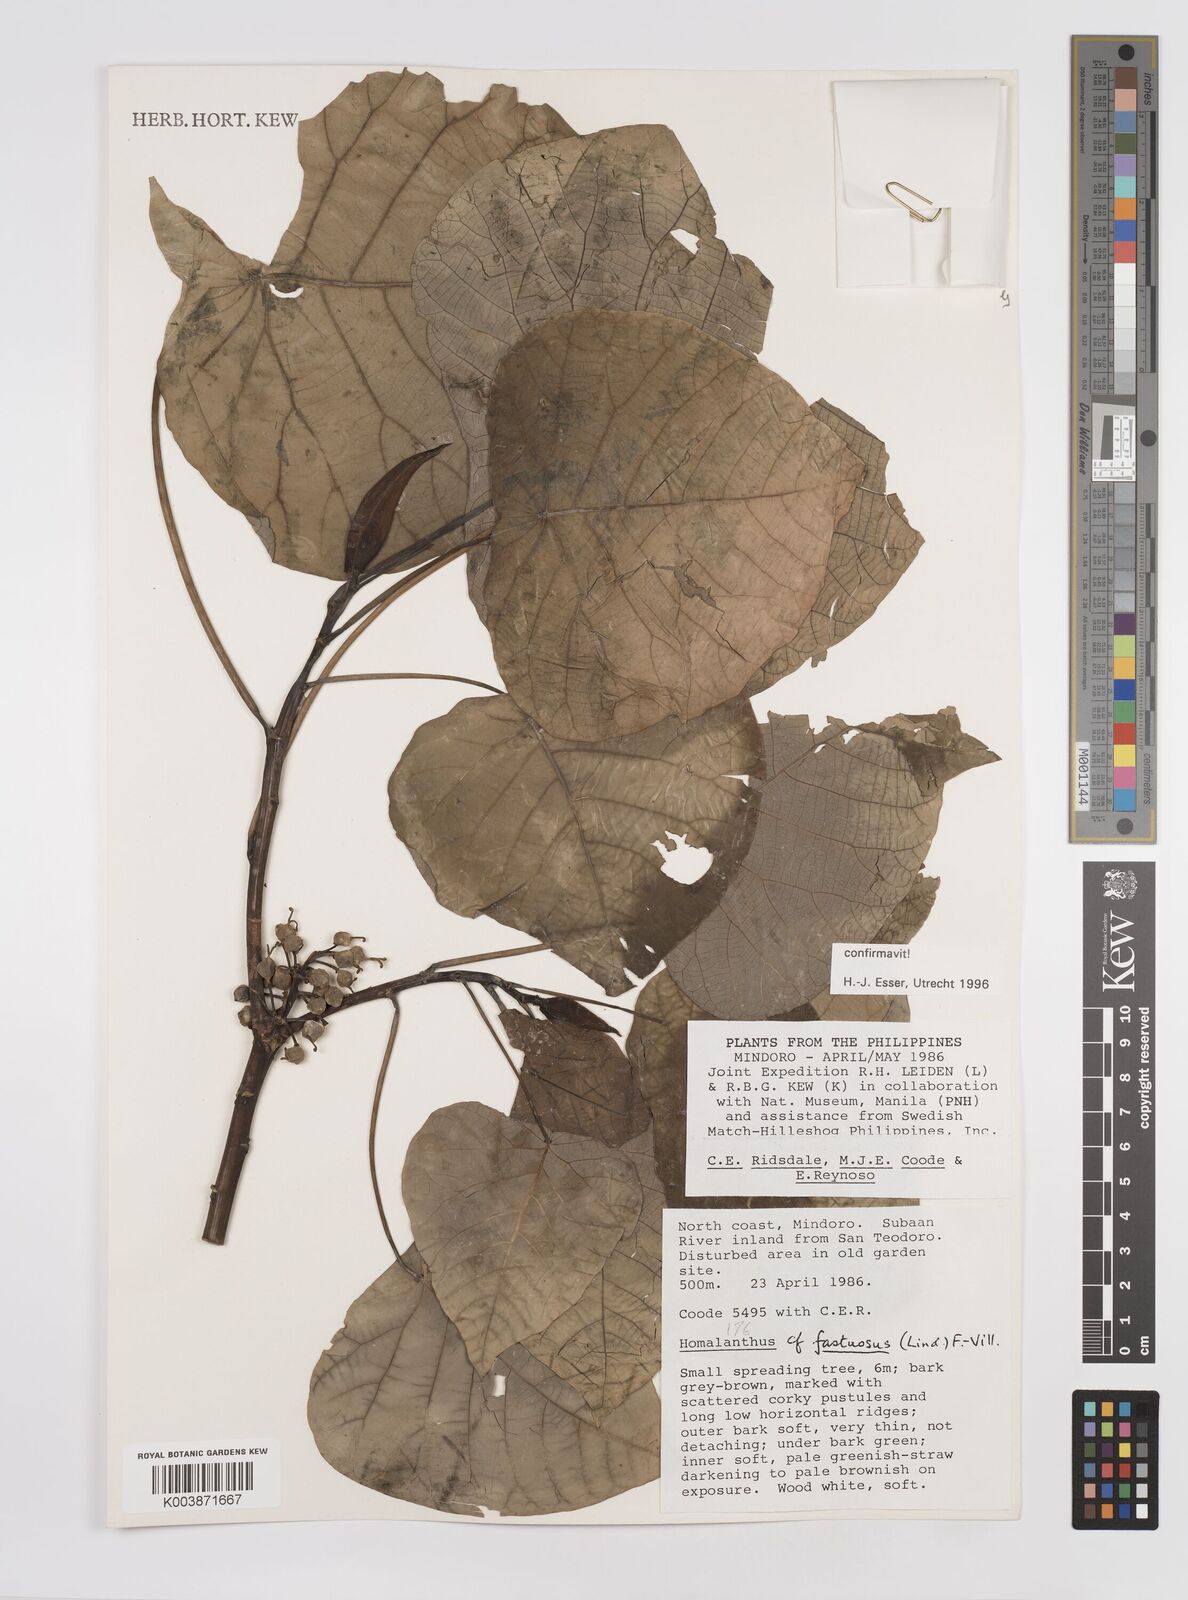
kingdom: Plantae
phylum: Tracheophyta
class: Magnoliopsida
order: Malpighiales
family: Euphorbiaceae
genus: Homalanthus
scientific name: Homalanthus fastuosus
